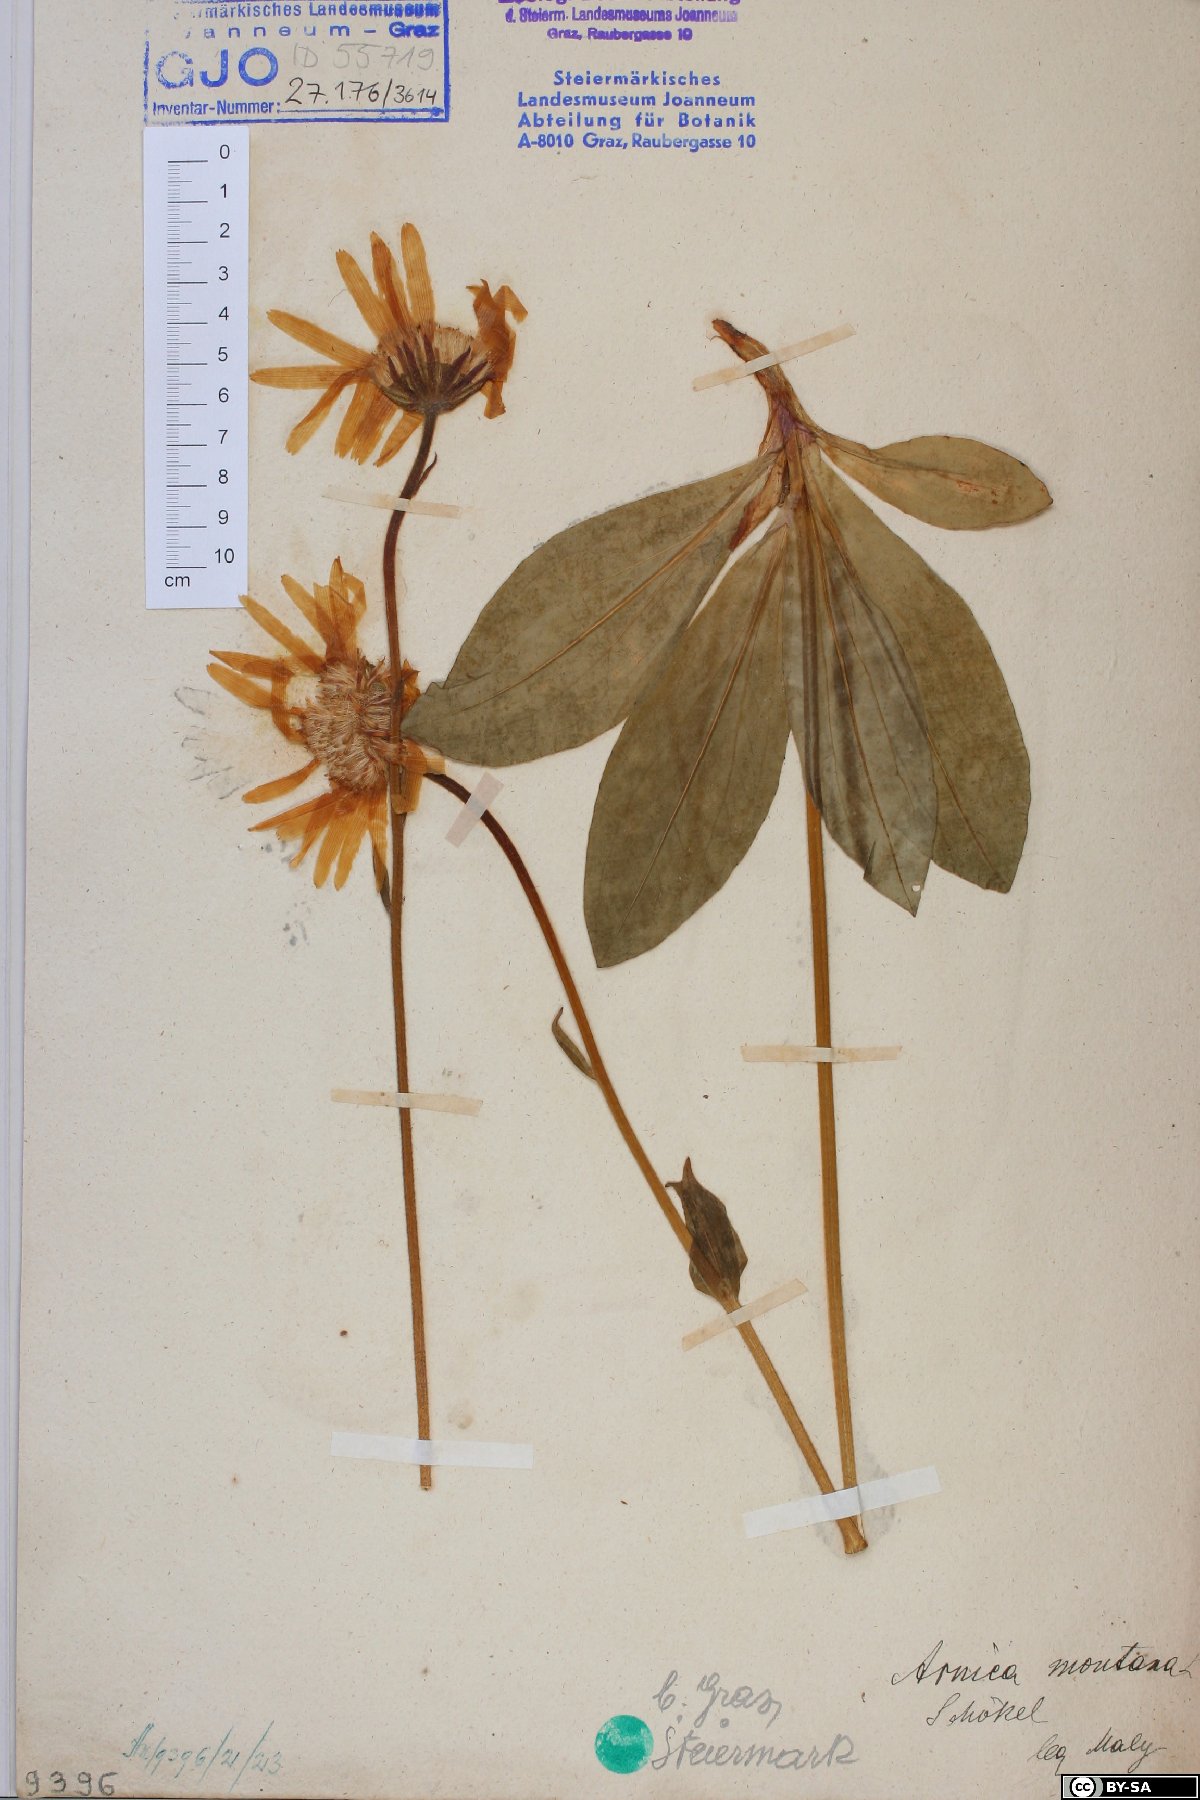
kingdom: Plantae
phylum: Tracheophyta
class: Magnoliopsida
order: Asterales
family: Asteraceae
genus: Arnica
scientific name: Arnica montana
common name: Leopard's bane
